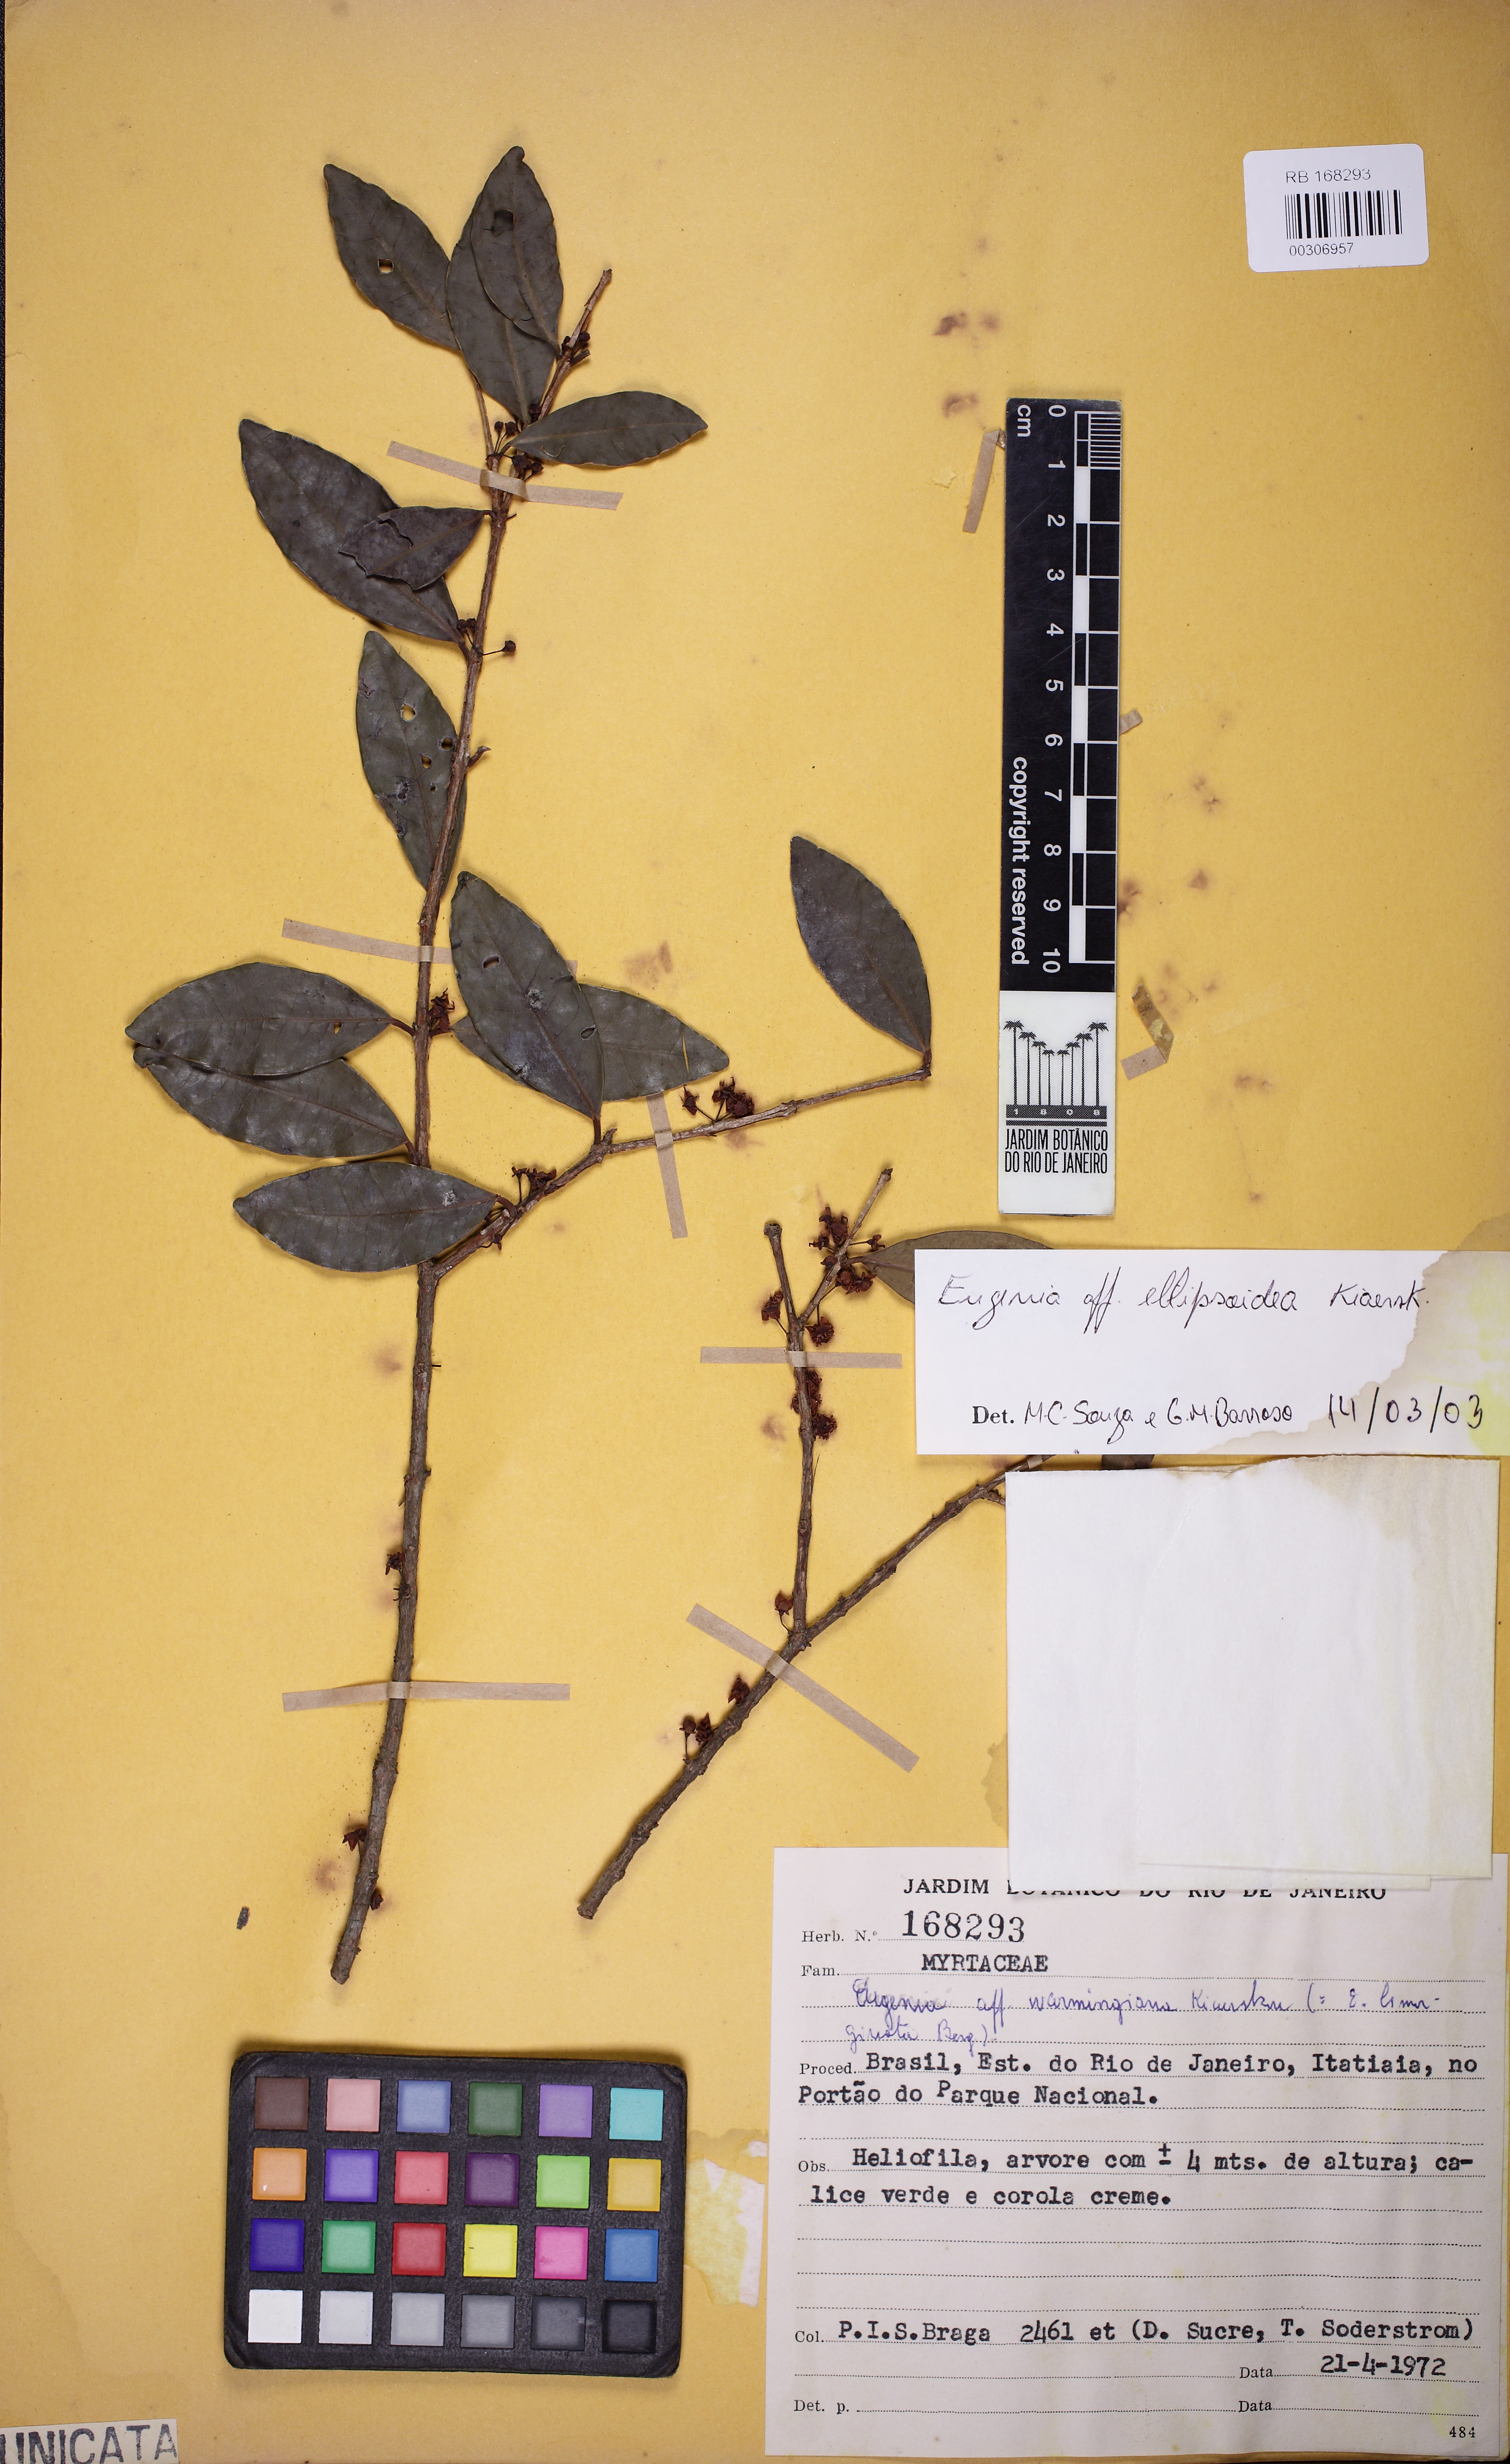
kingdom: Plantae
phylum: Tracheophyta
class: Magnoliopsida
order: Myrtales
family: Myrtaceae
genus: Eugenia
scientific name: Eugenia ellipsoidea
